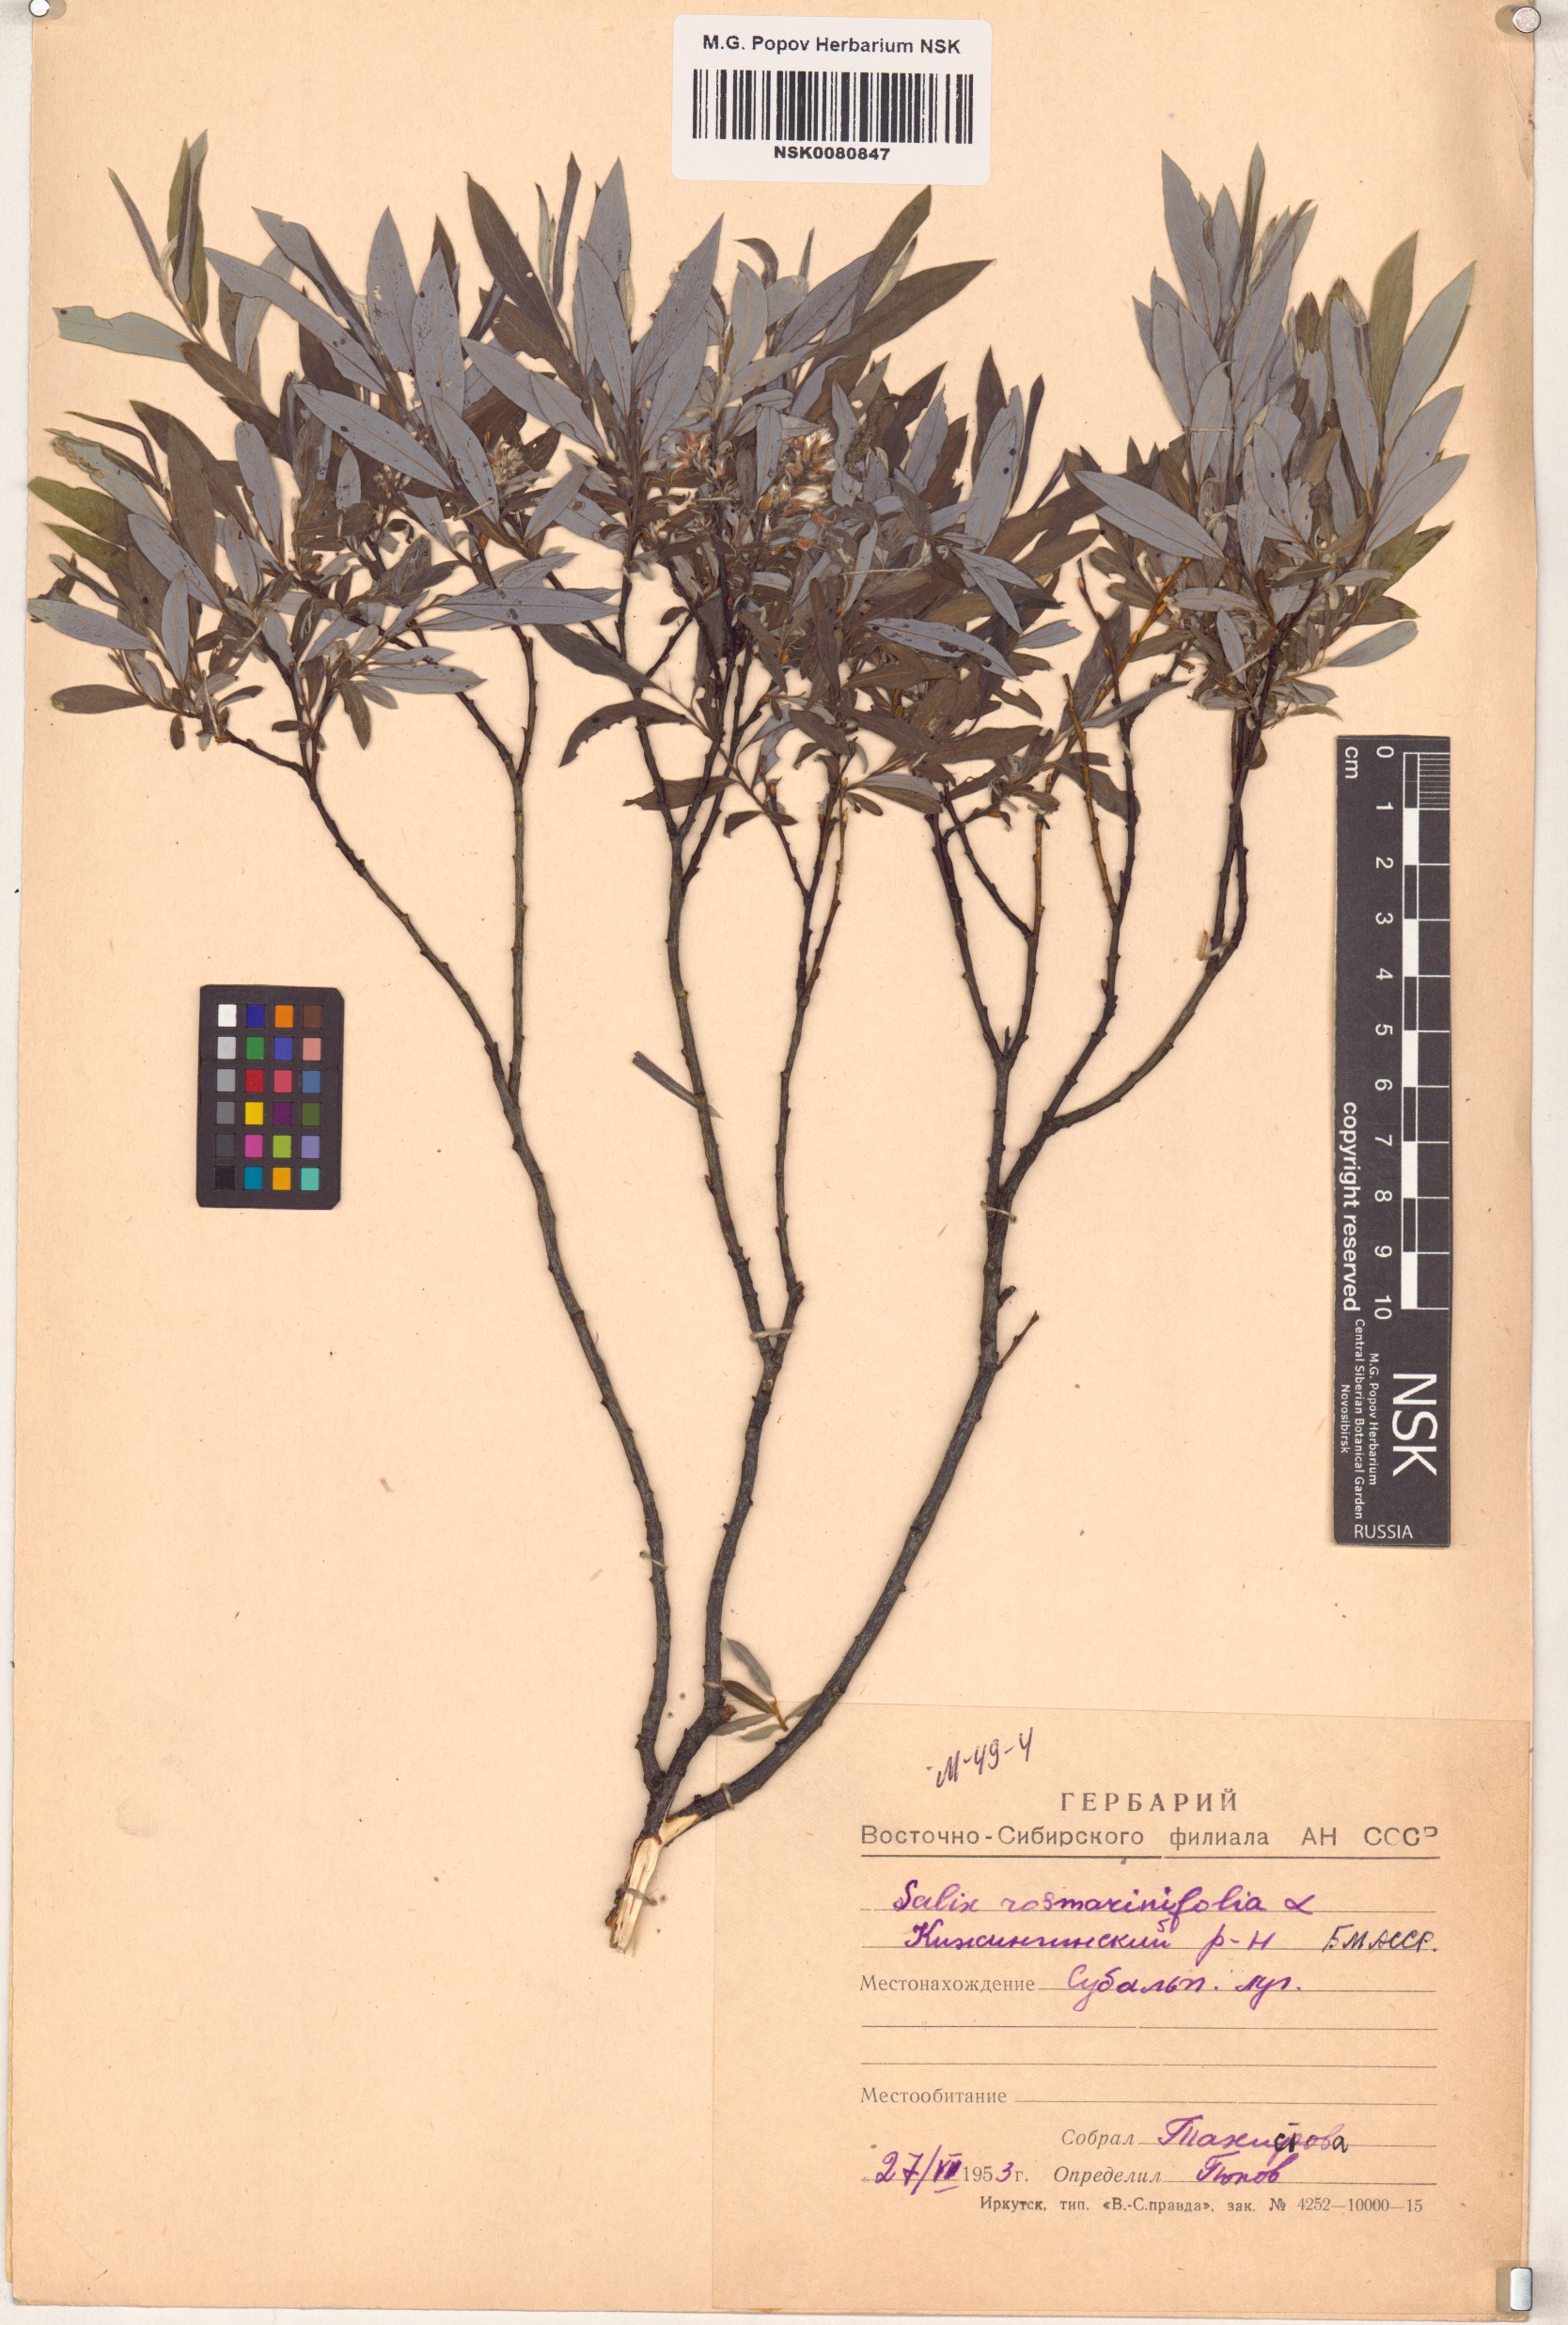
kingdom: Plantae
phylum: Tracheophyta
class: Magnoliopsida
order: Malpighiales
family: Salicaceae
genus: Salix
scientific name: Salix rosmarinifolia
